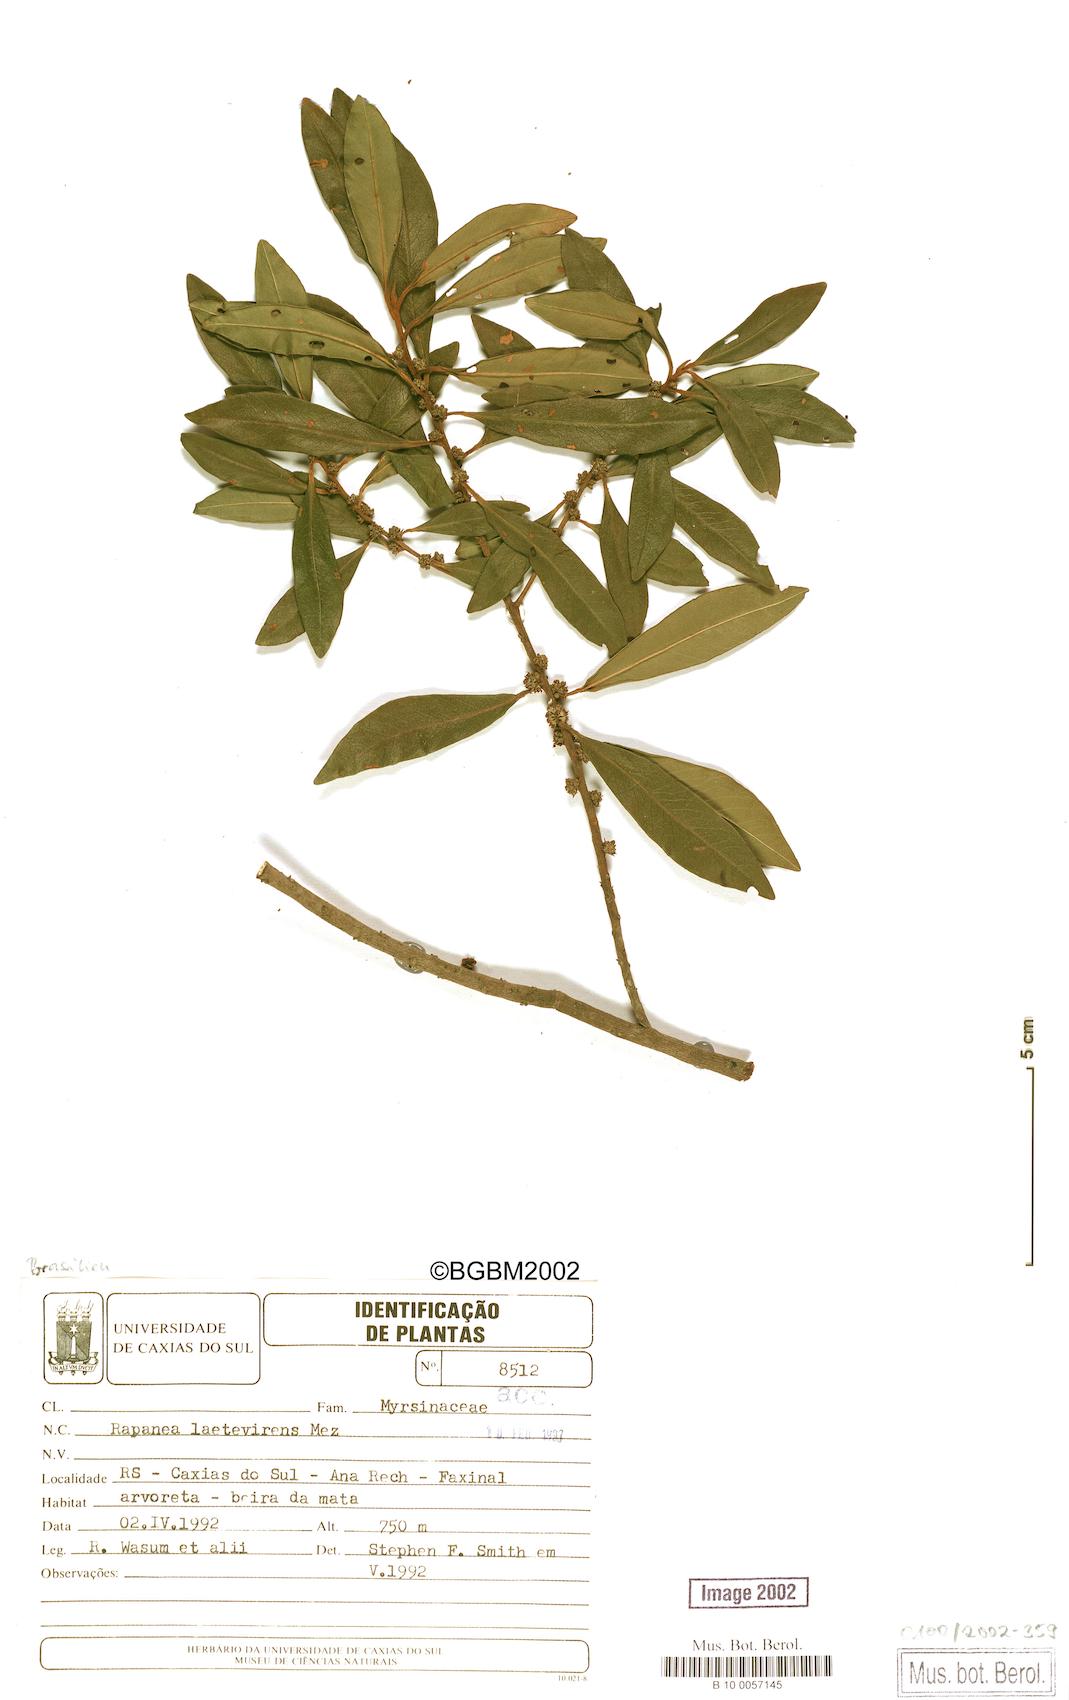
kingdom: Plantae
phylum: Tracheophyta
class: Magnoliopsida
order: Ericales
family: Primulaceae
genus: Myrsine
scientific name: Myrsine laetevirens
